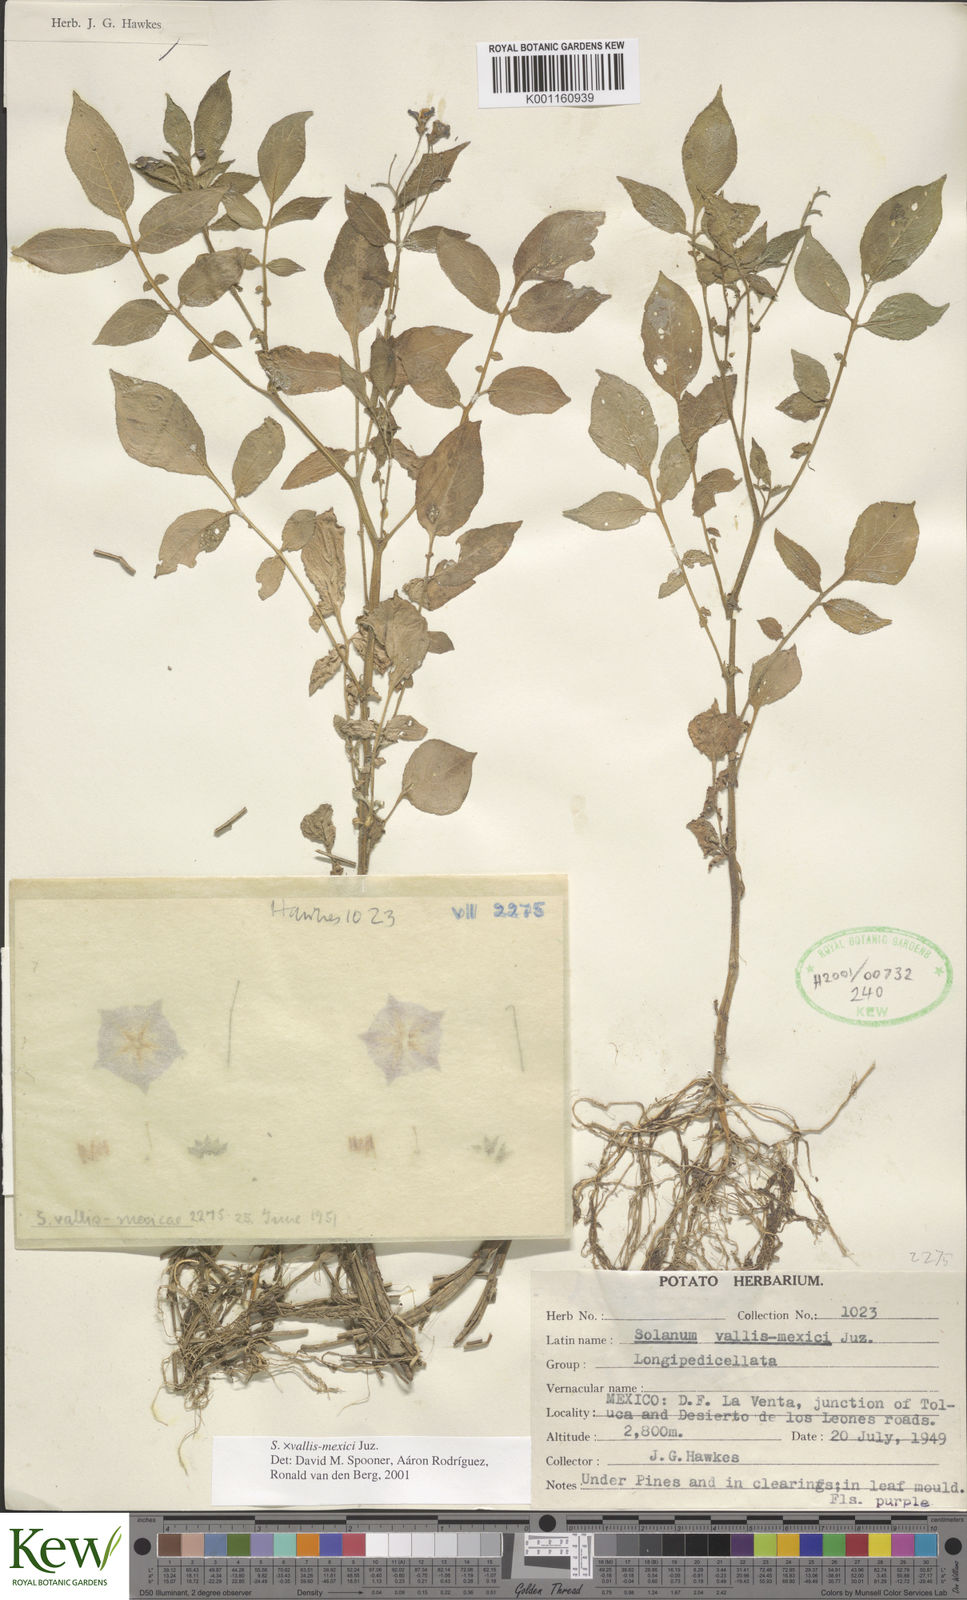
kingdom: Plantae
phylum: Tracheophyta
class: Magnoliopsida
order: Solanales
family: Solanaceae
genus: Solanum
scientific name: Solanum vallis-mexici
